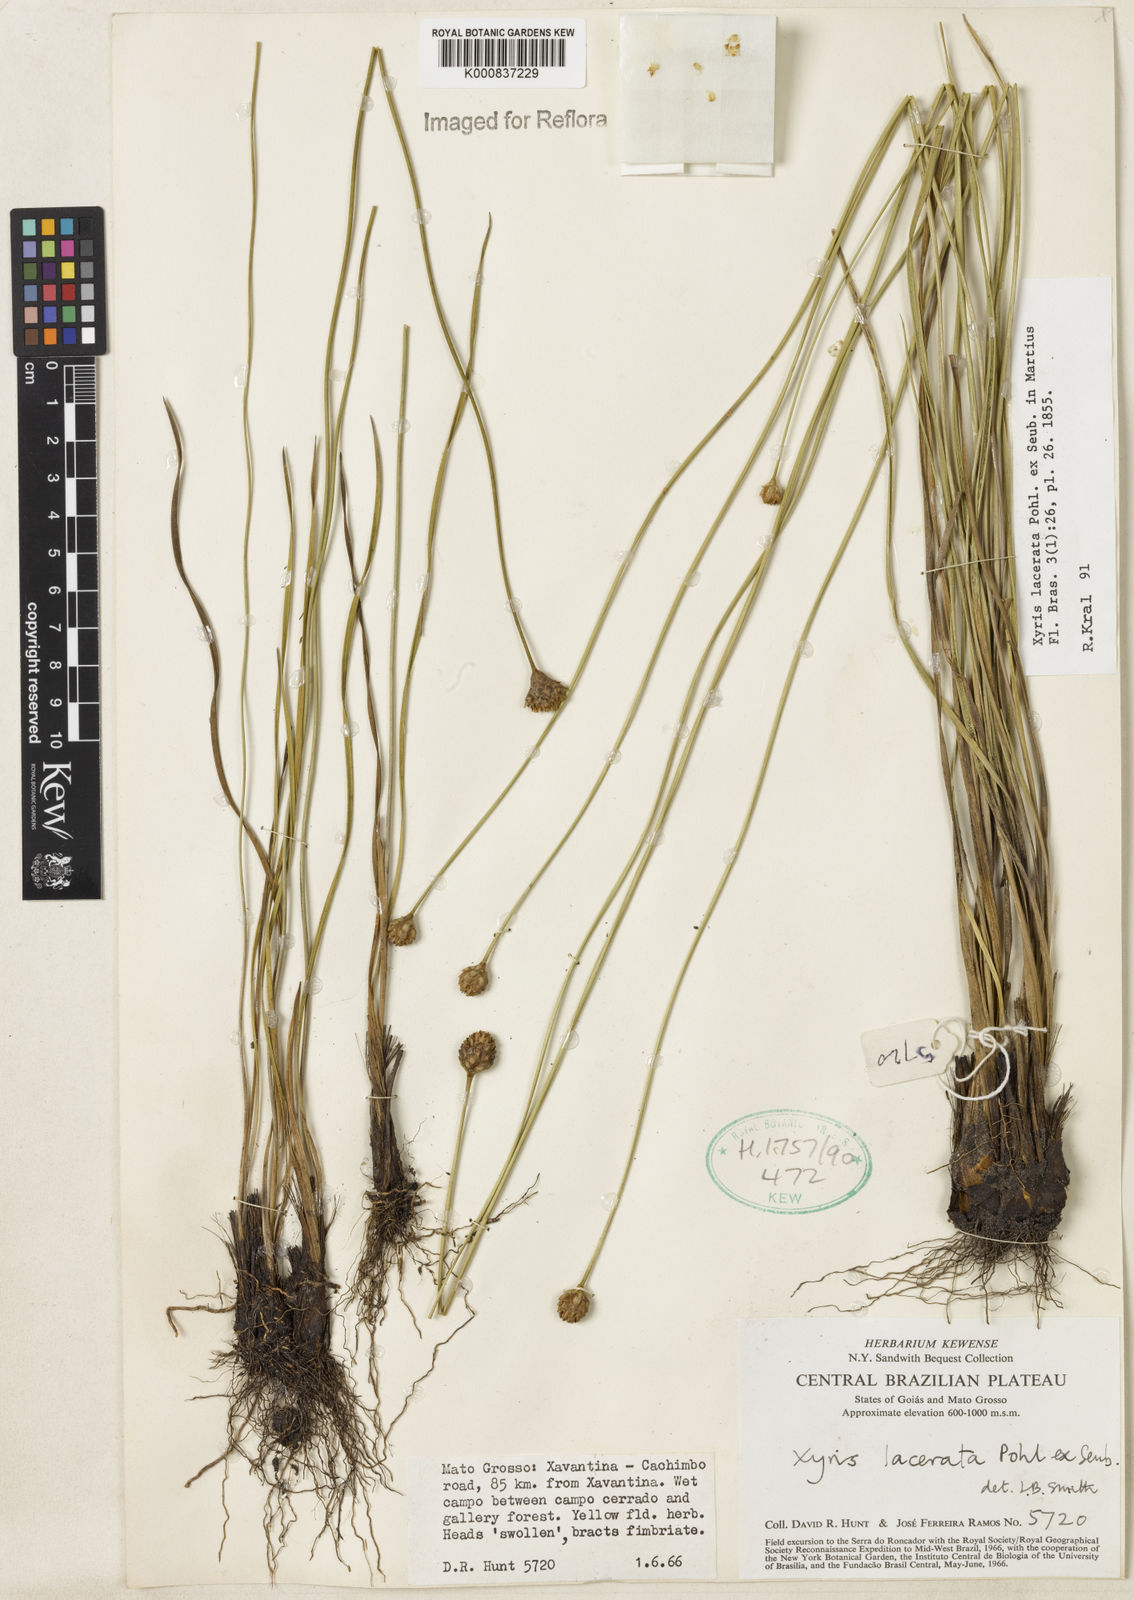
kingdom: Plantae
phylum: Tracheophyta
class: Liliopsida
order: Poales
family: Xyridaceae
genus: Xyris
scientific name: Xyris lacerata
